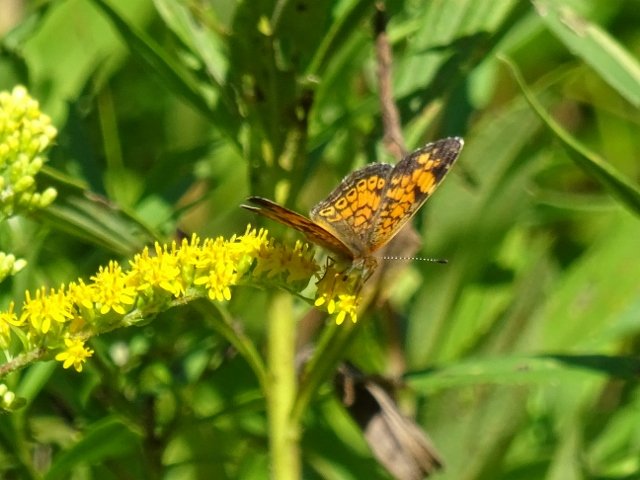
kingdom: Animalia
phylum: Arthropoda
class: Insecta
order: Lepidoptera
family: Nymphalidae
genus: Phyciodes
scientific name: Phyciodes tharos
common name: Pearl Crescent
